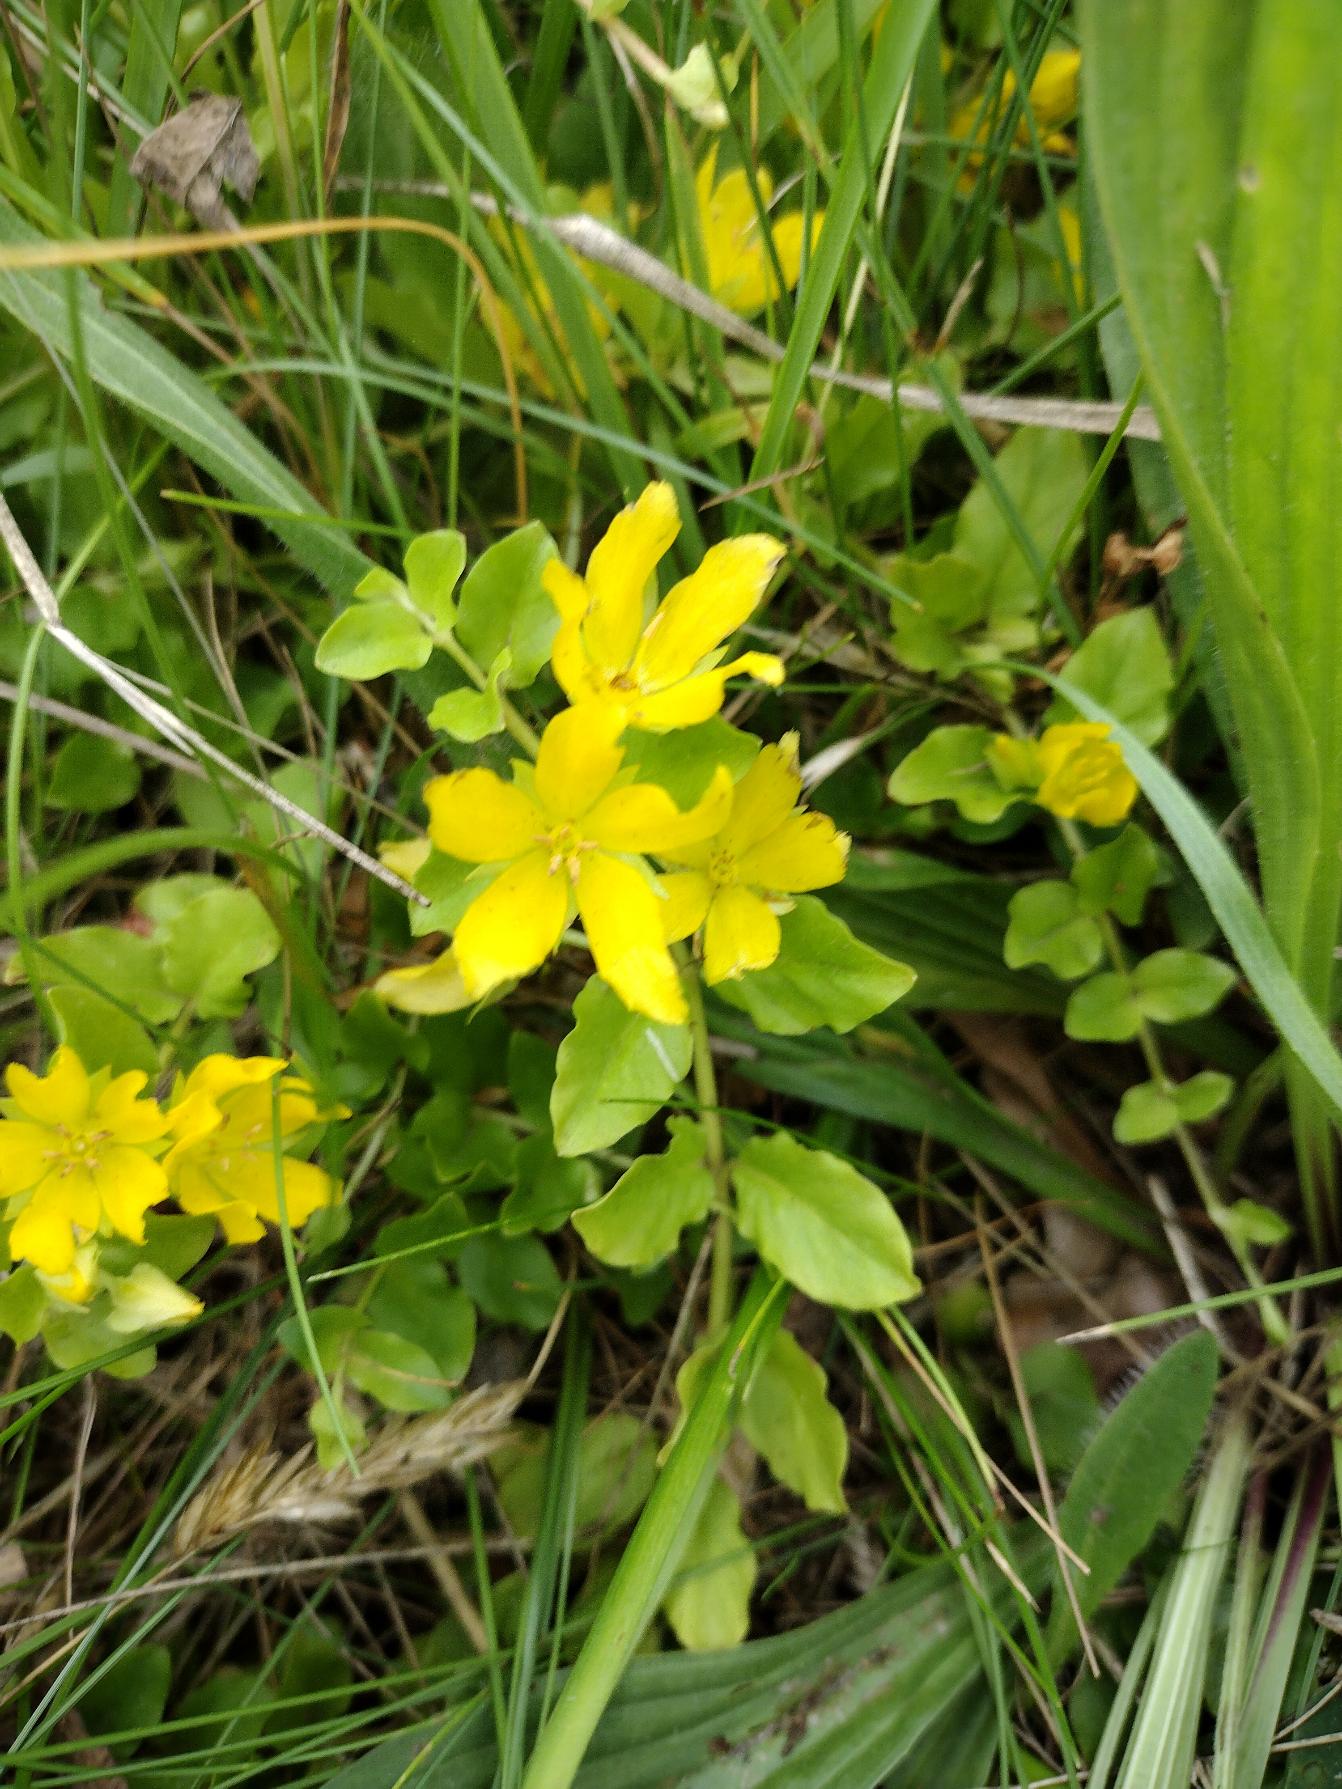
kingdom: Plantae
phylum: Tracheophyta
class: Magnoliopsida
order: Ericales
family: Primulaceae
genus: Lysimachia
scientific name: Lysimachia nummularia
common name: Pengebladet fredløs
